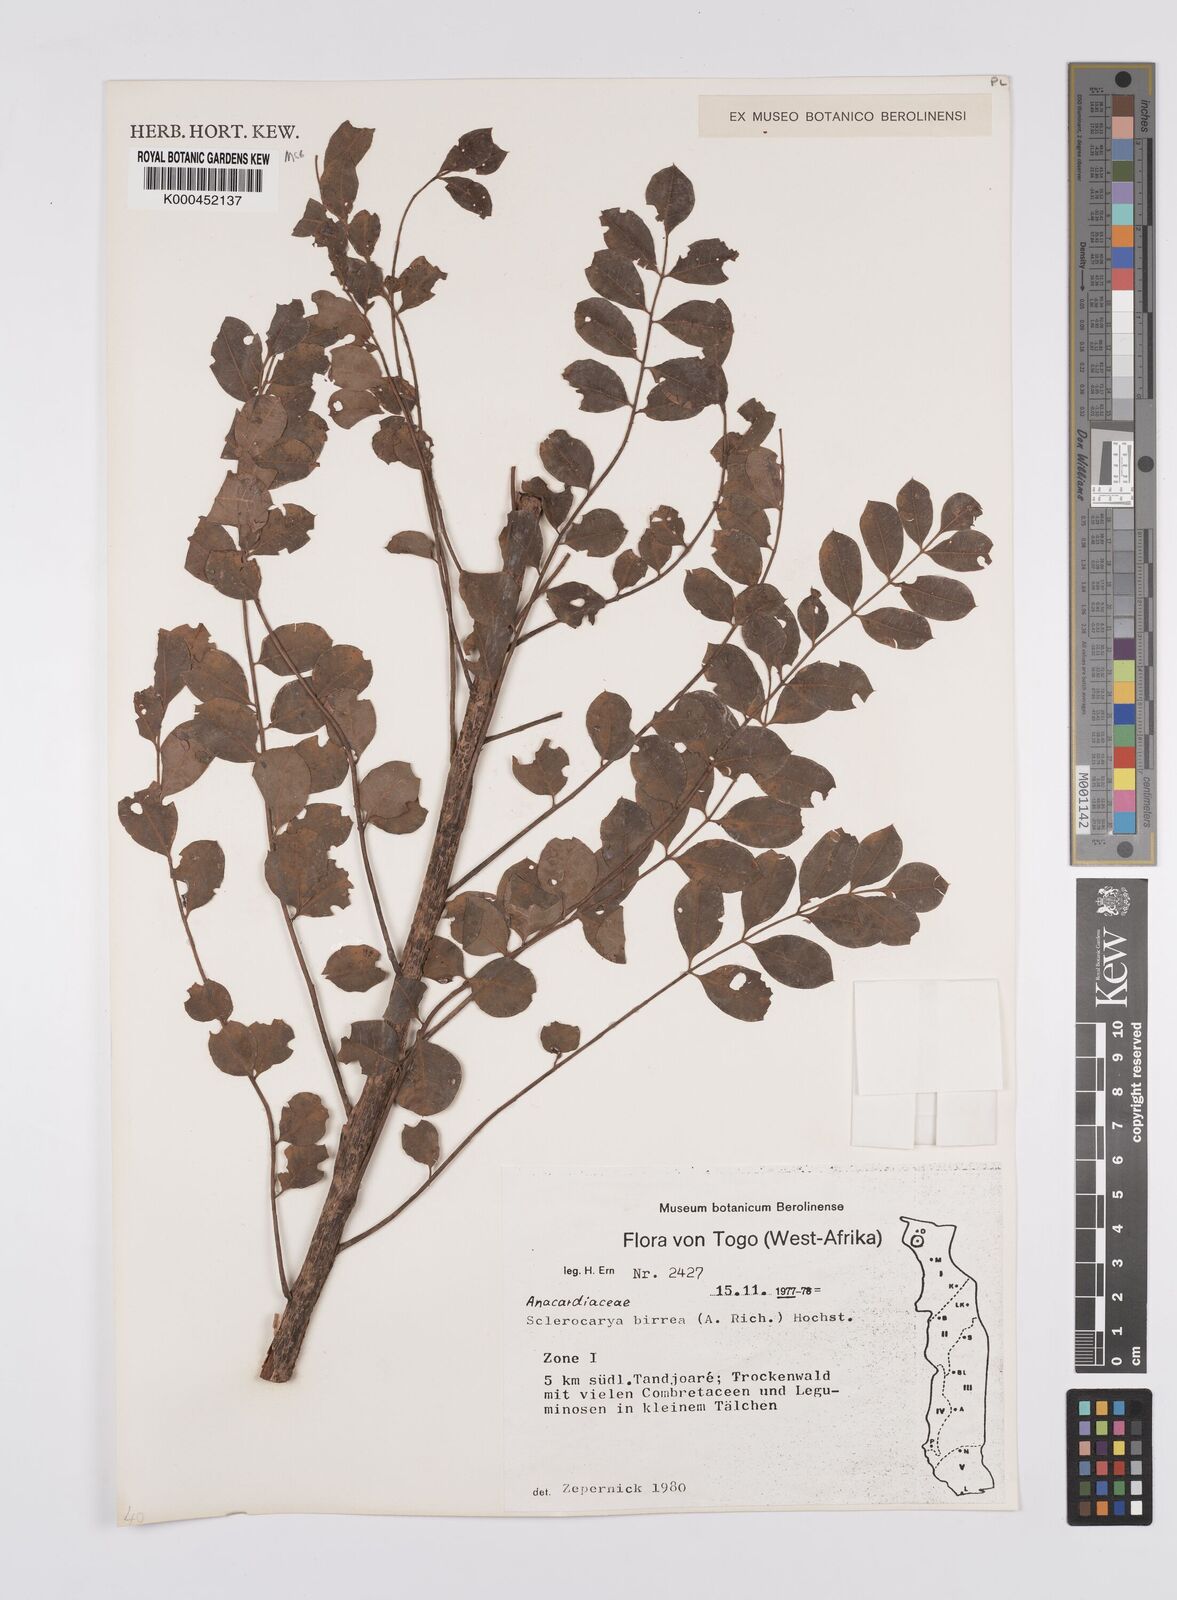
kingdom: Plantae
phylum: Tracheophyta
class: Magnoliopsida
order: Sapindales
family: Anacardiaceae
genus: Sclerocarya
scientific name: Sclerocarya birrea
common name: Marula
